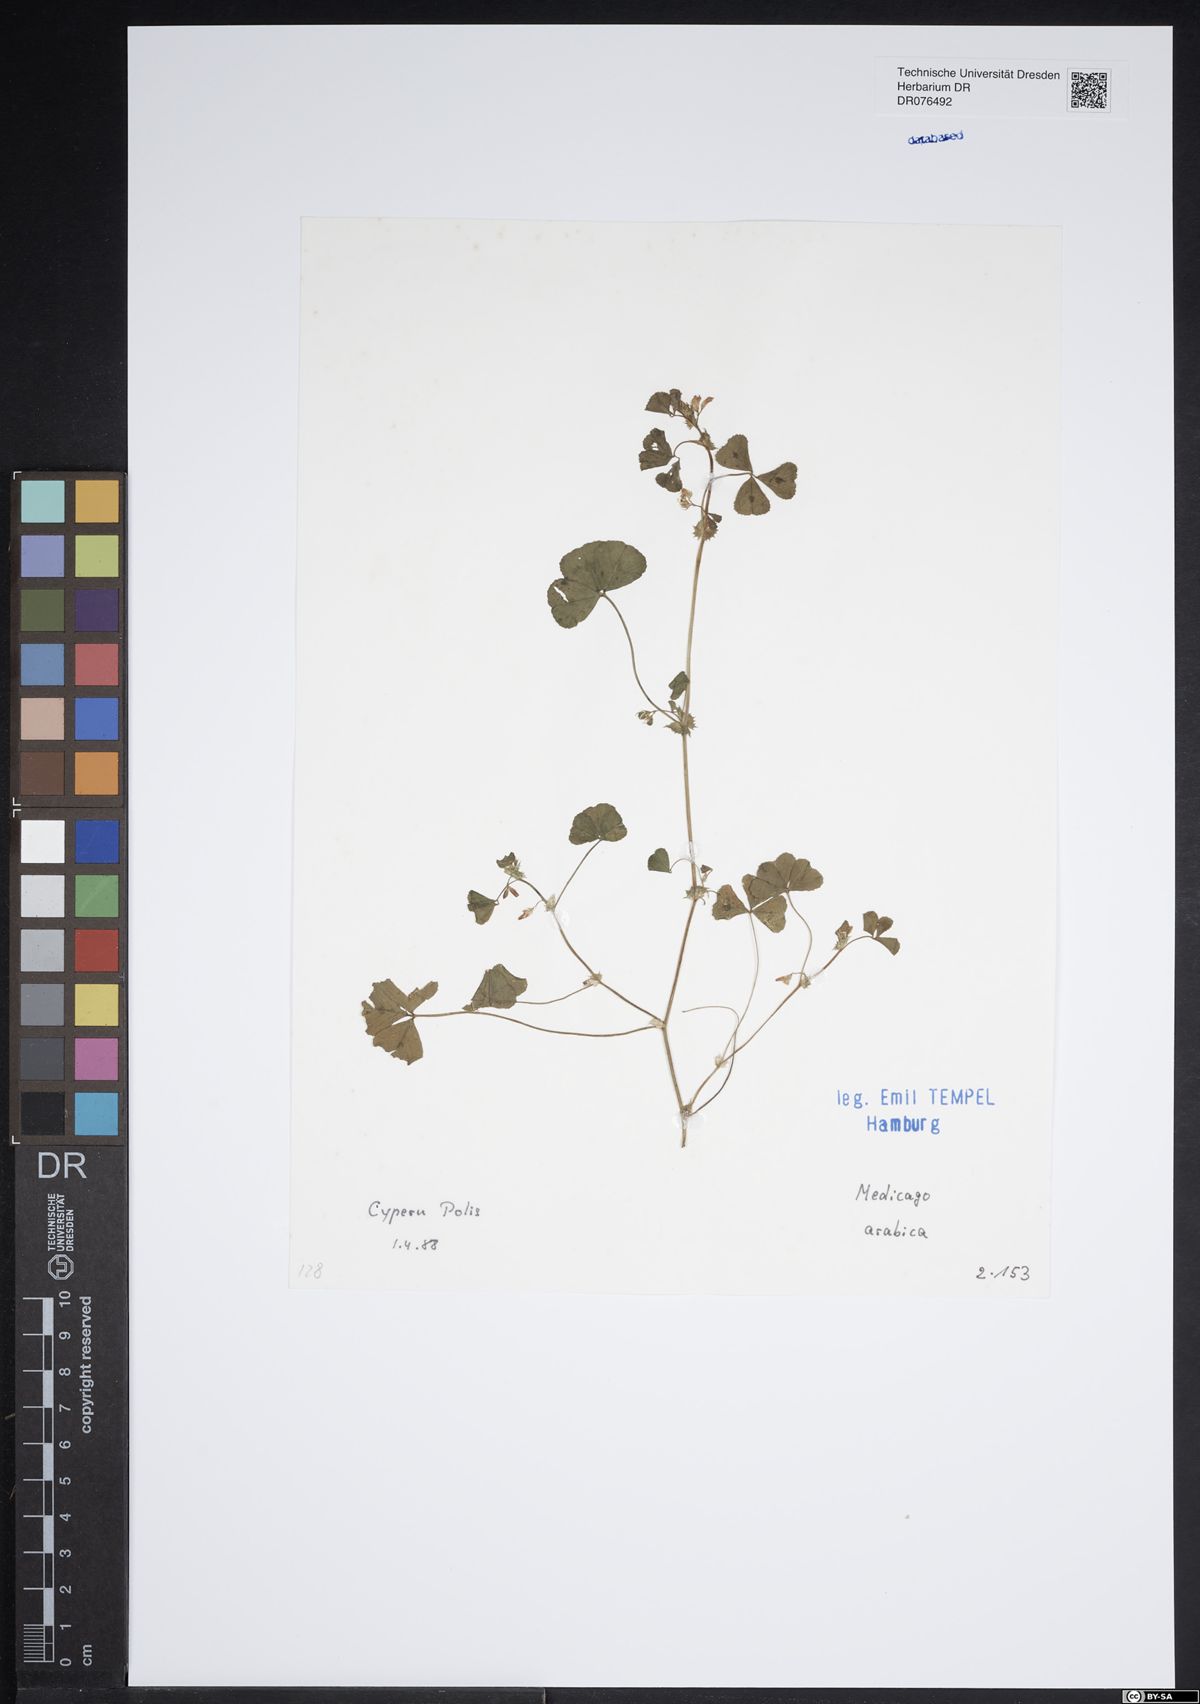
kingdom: Plantae
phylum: Tracheophyta
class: Magnoliopsida
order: Fabales
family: Fabaceae
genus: Medicago
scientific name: Medicago arabica
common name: Spotted medick
